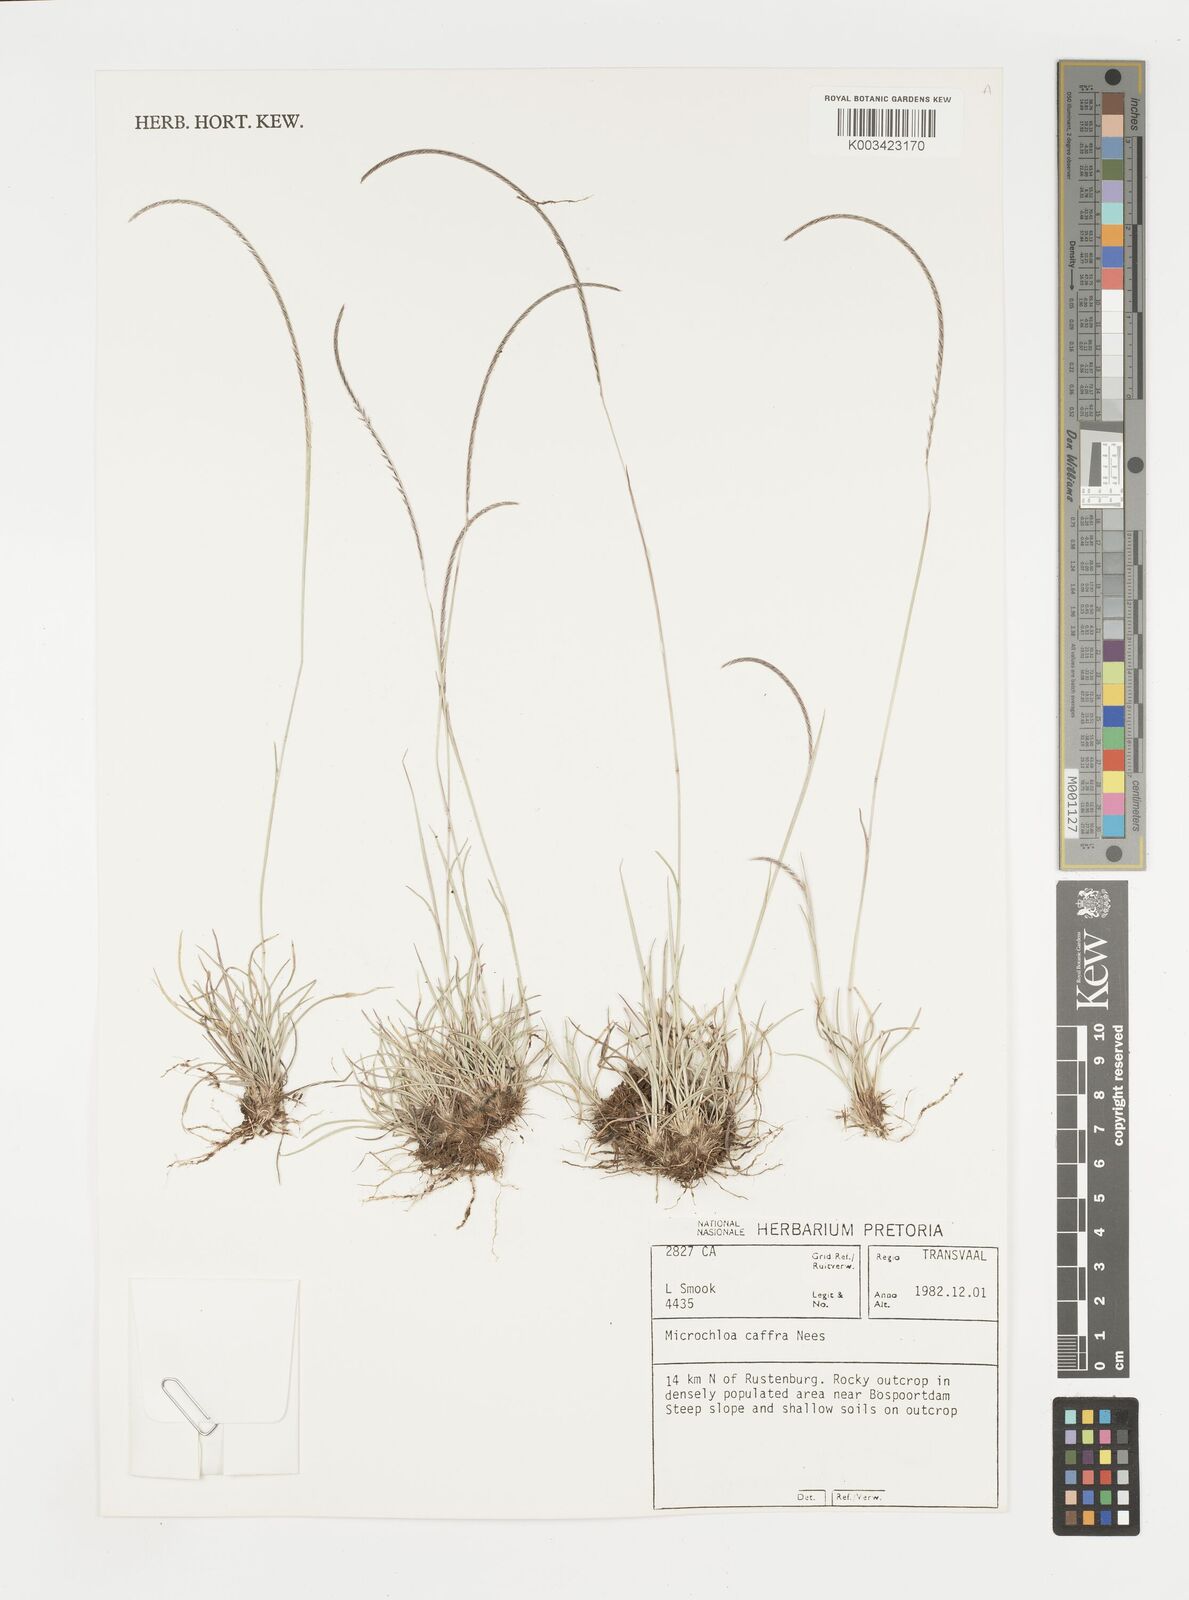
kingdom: Plantae
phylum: Tracheophyta
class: Liliopsida
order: Poales
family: Poaceae
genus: Microchloa
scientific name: Microchloa caffra
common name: Pincushion grass
